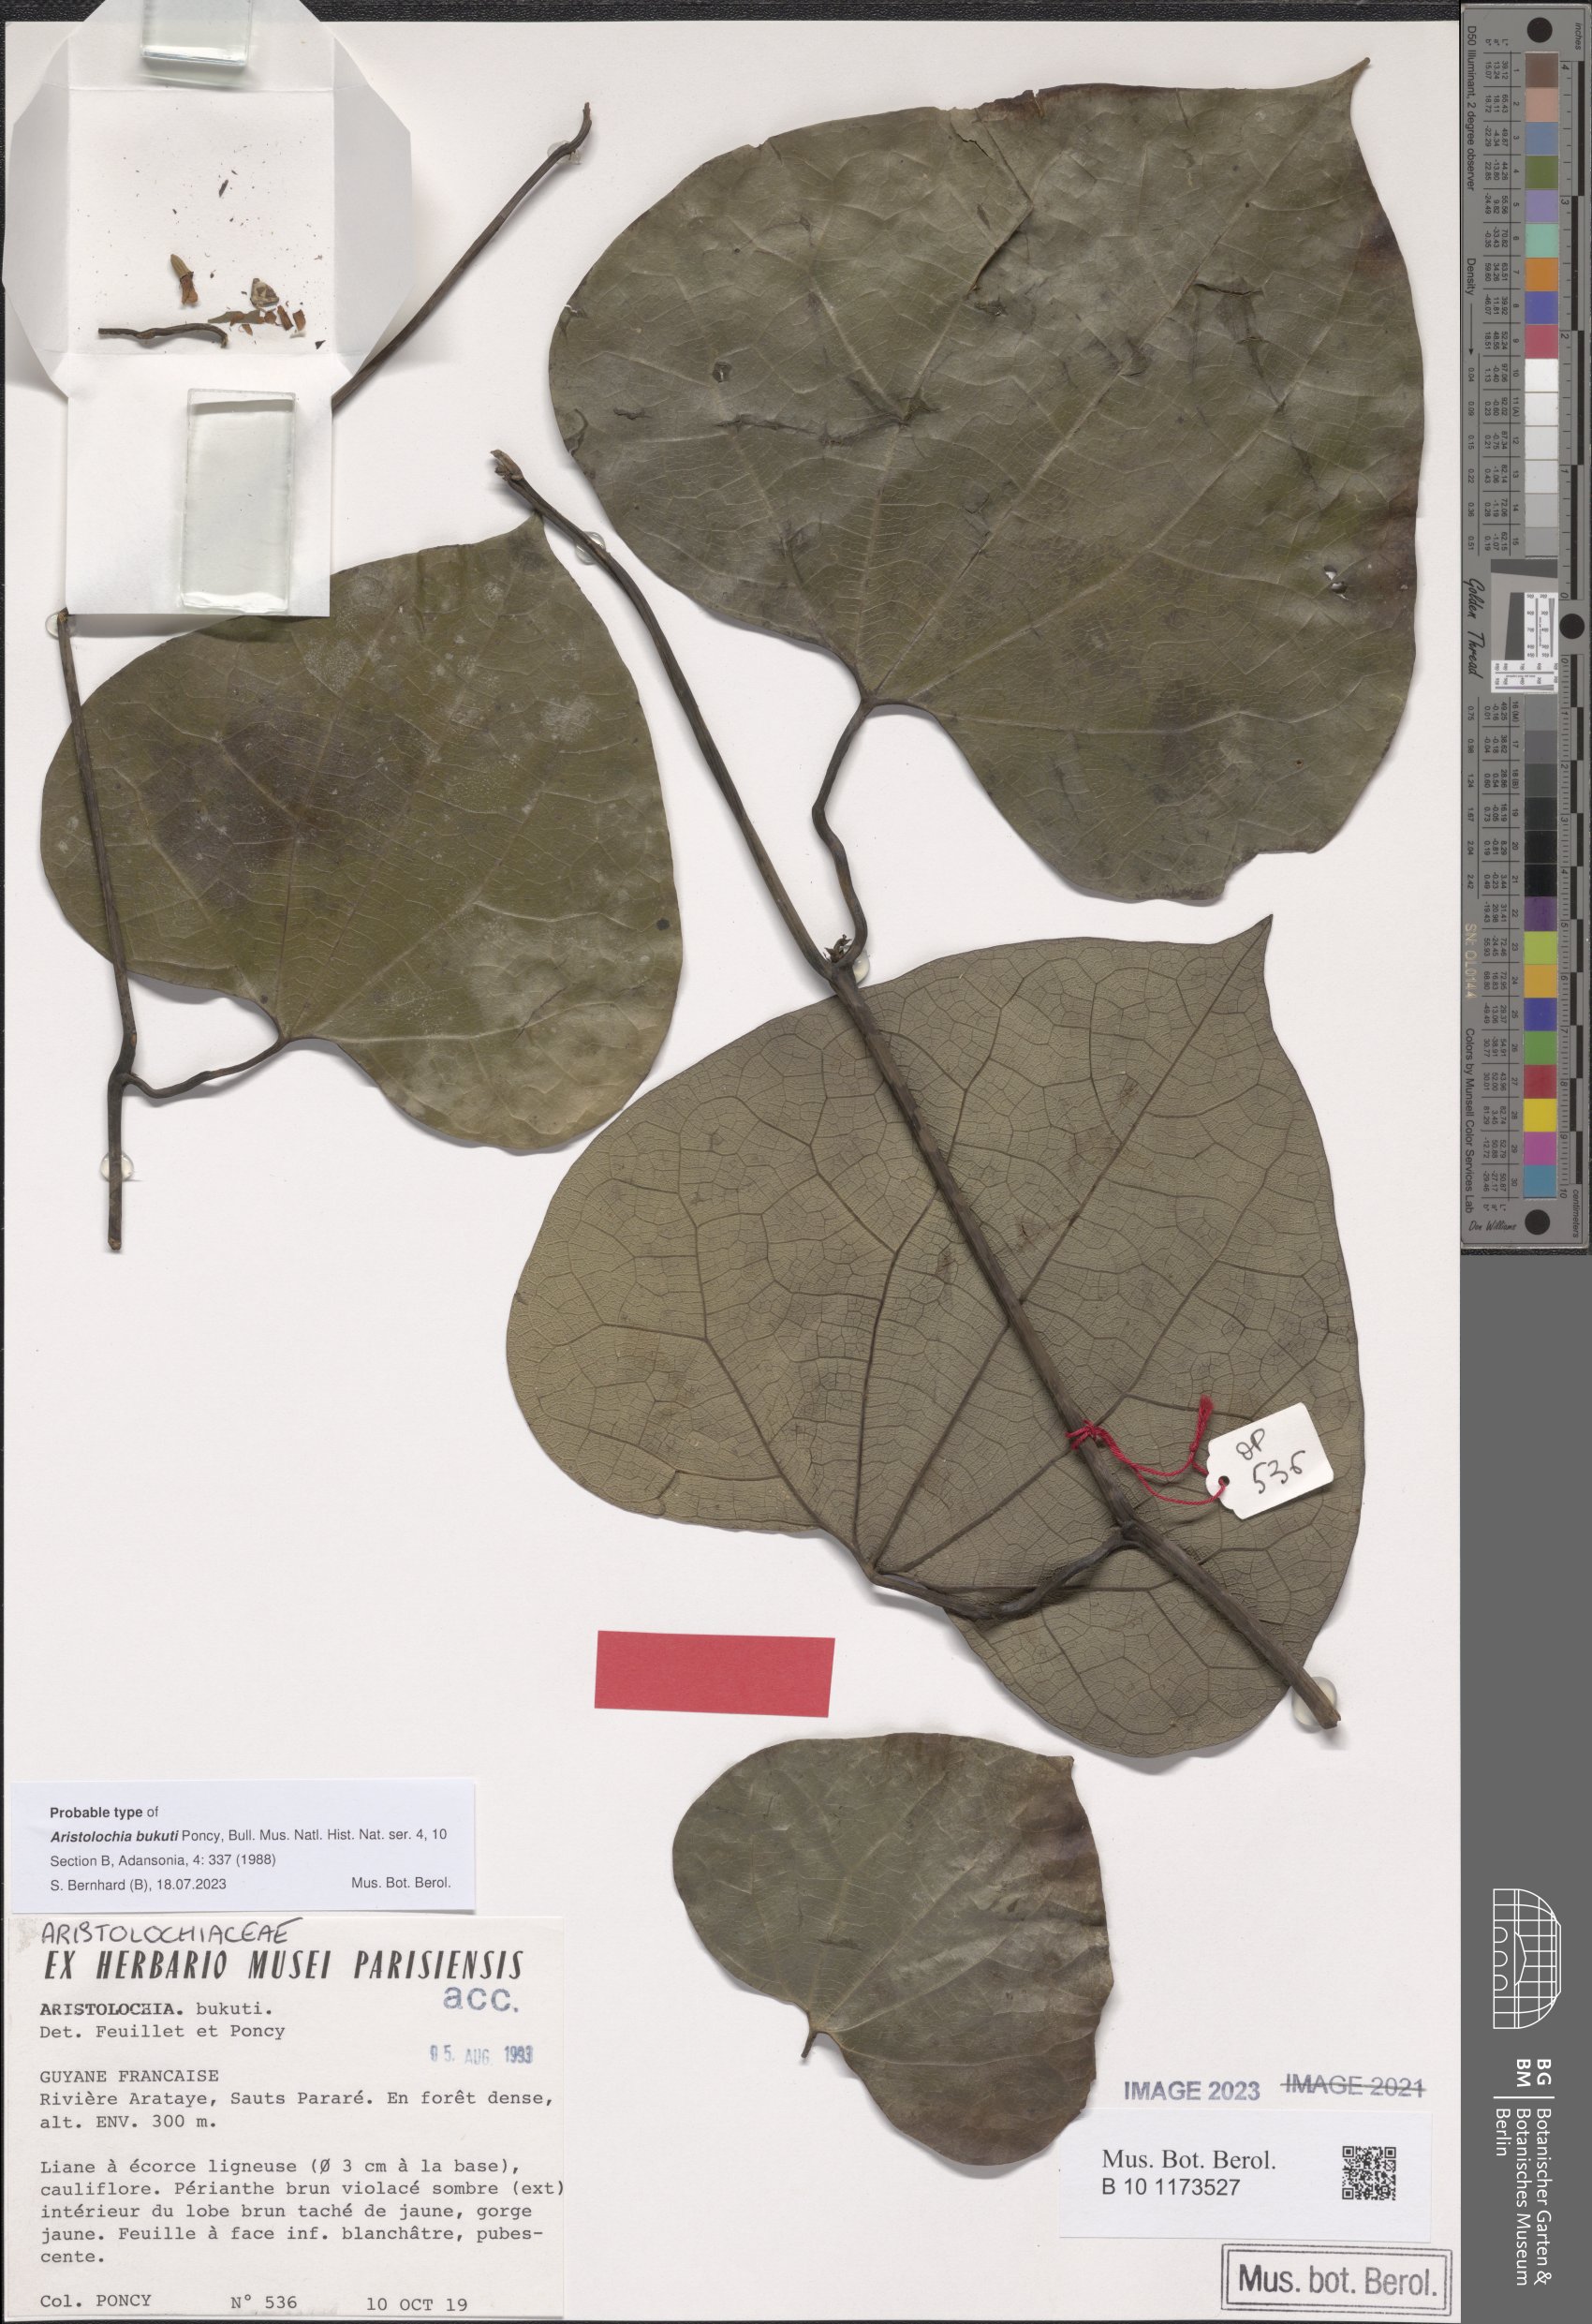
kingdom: Plantae
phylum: Tracheophyta
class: Magnoliopsida
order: Piperales
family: Aristolochiaceae
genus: Aristolochia
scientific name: Aristolochia bukuti
